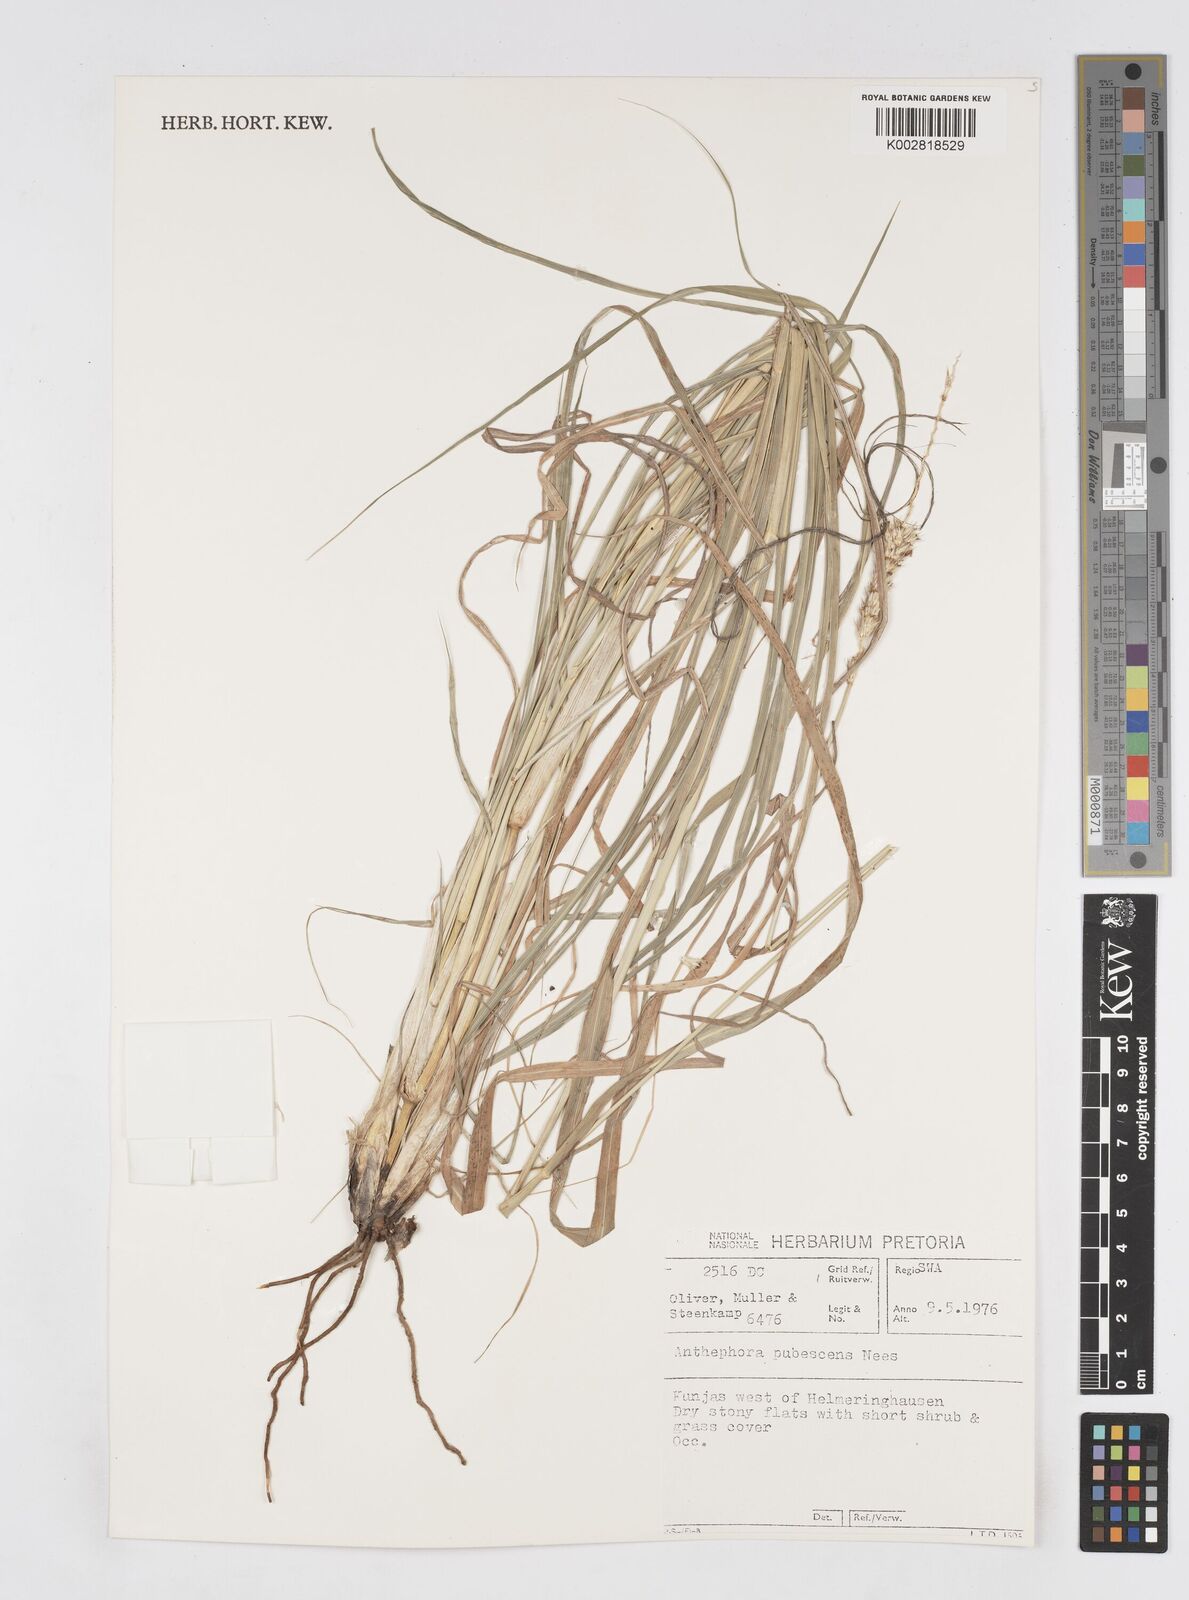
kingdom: Plantae
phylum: Tracheophyta
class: Liliopsida
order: Poales
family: Poaceae
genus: Anthephora
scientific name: Anthephora pubescens
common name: Wool grass
